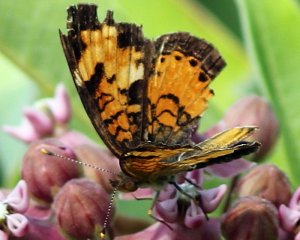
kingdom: Animalia
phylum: Arthropoda
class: Insecta
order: Lepidoptera
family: Nymphalidae
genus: Phyciodes
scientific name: Phyciodes tharos
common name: Northern Crescent
